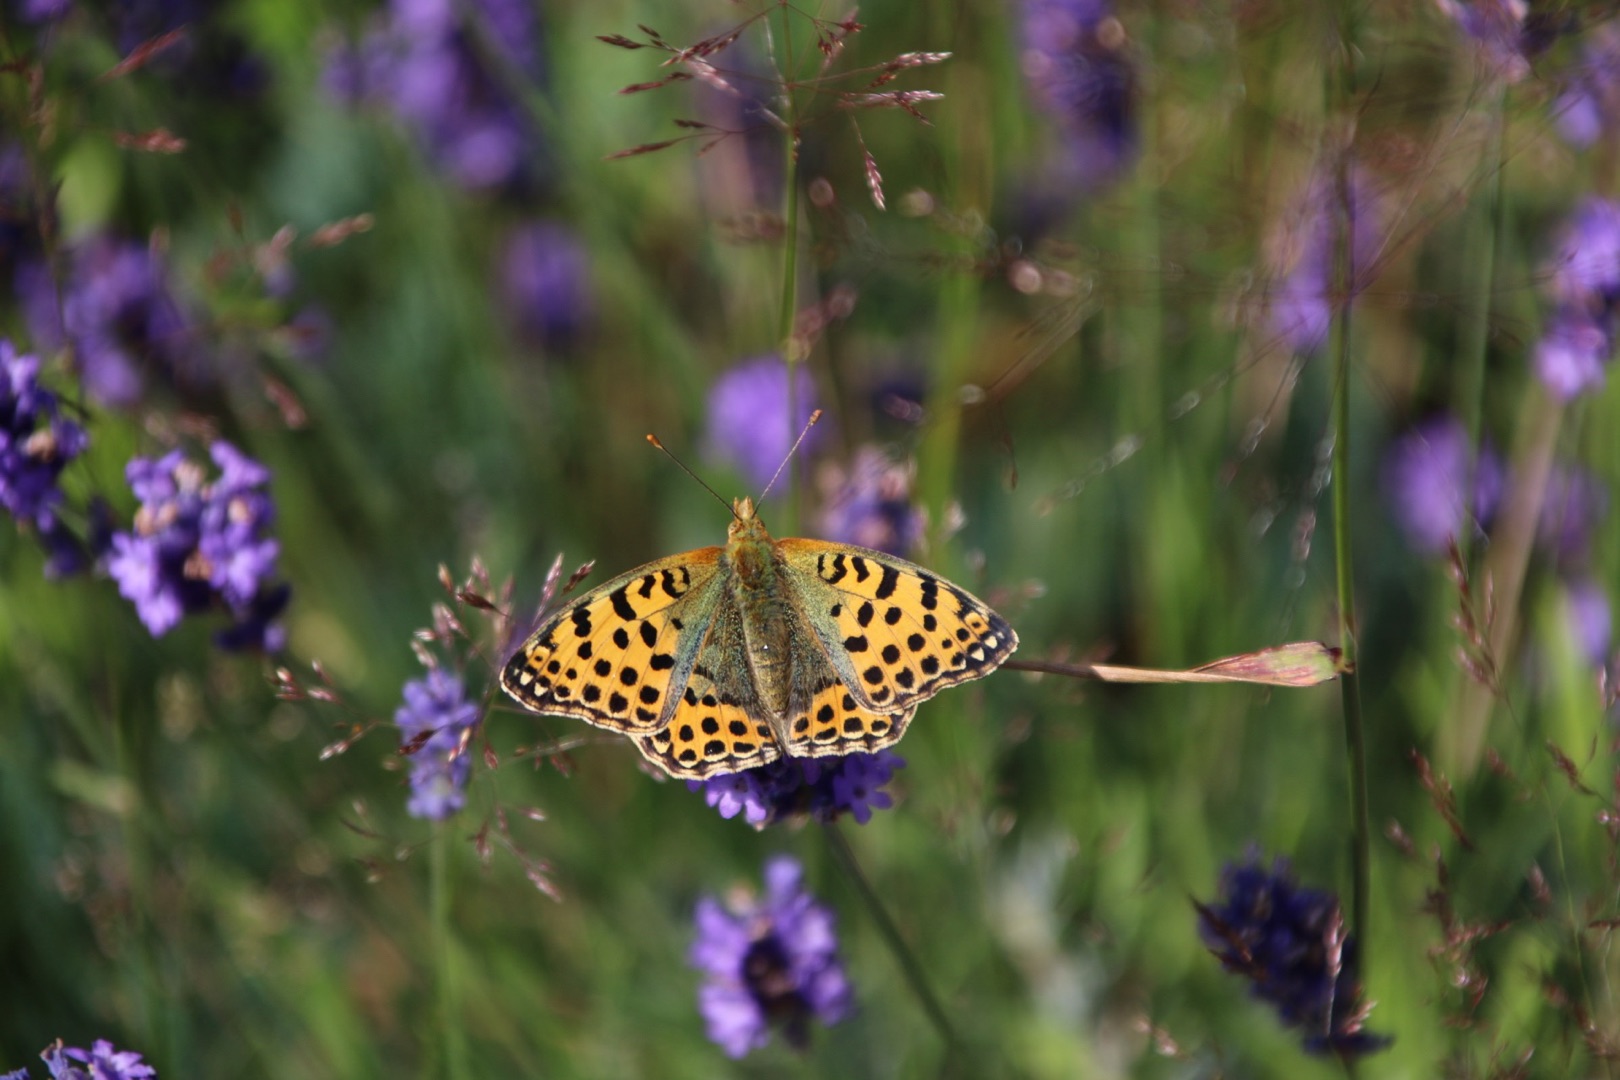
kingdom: Animalia
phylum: Arthropoda
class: Insecta
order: Lepidoptera
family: Nymphalidae
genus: Issoria
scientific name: Issoria lathonia
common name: Storplettet perlemorsommerfugl
